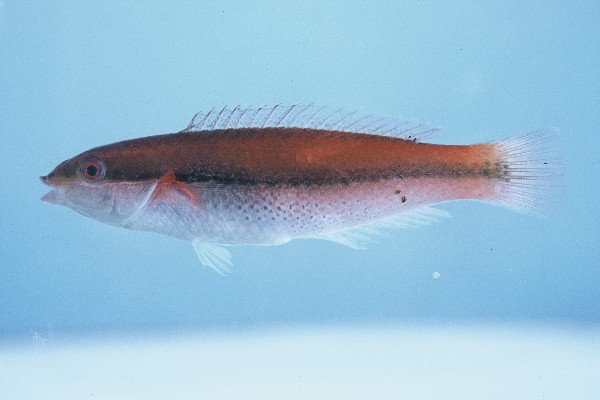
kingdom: Animalia
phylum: Chordata
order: Perciformes
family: Labridae
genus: Stethojulis
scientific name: Stethojulis interrupta
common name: Cutribbon wrasse
